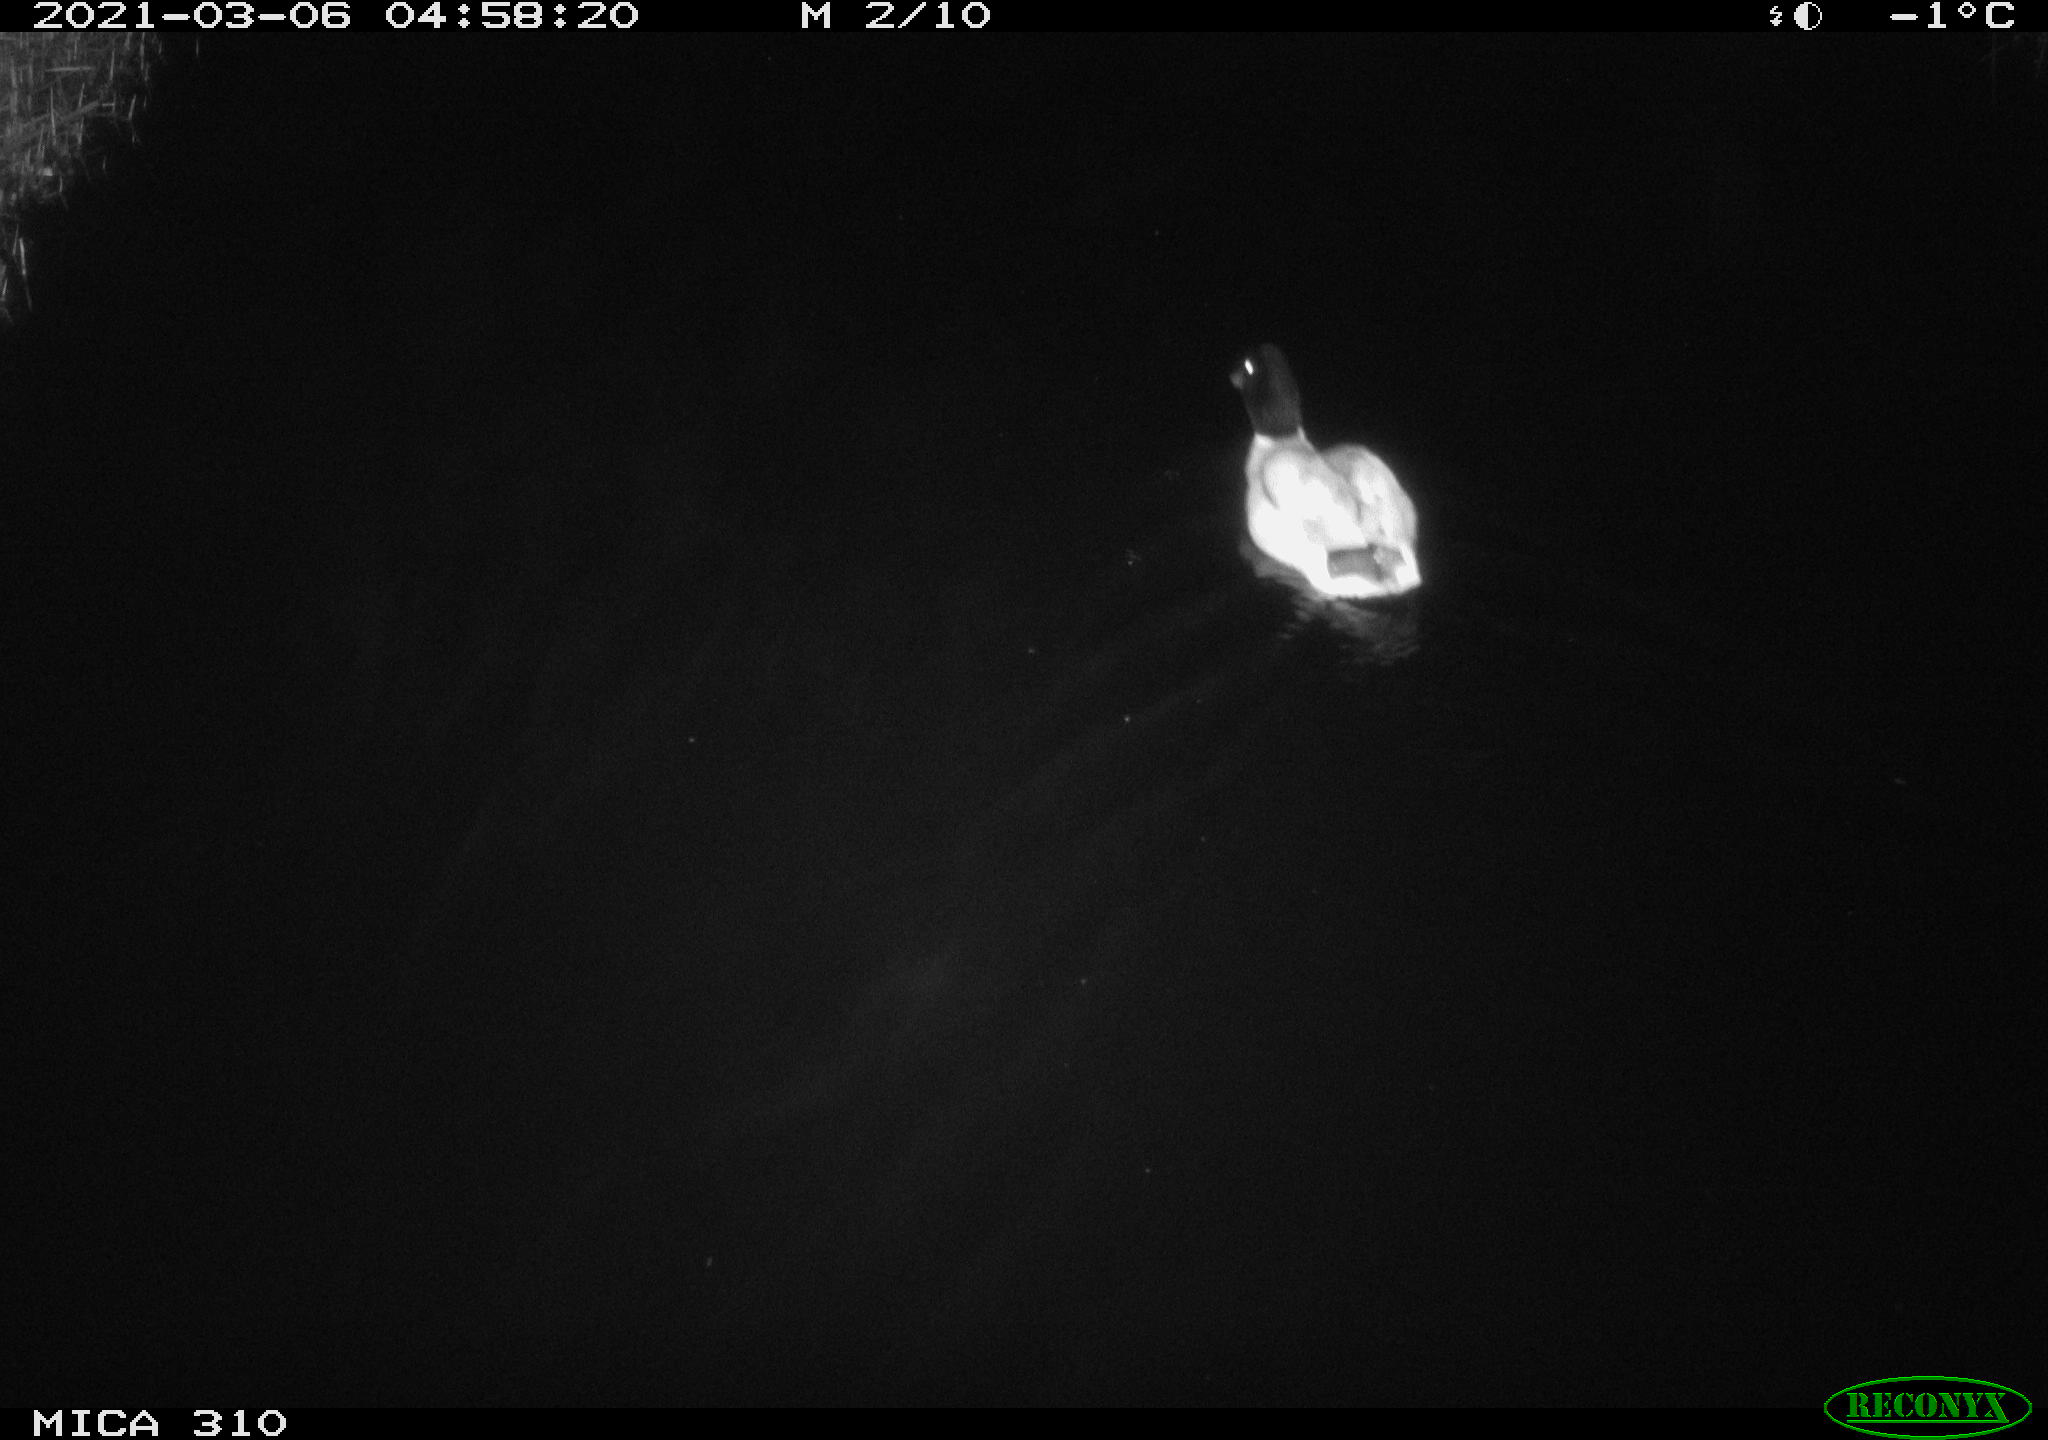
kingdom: Animalia
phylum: Chordata
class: Aves
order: Anseriformes
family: Anatidae
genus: Anas
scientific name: Anas platyrhynchos
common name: Mallard
